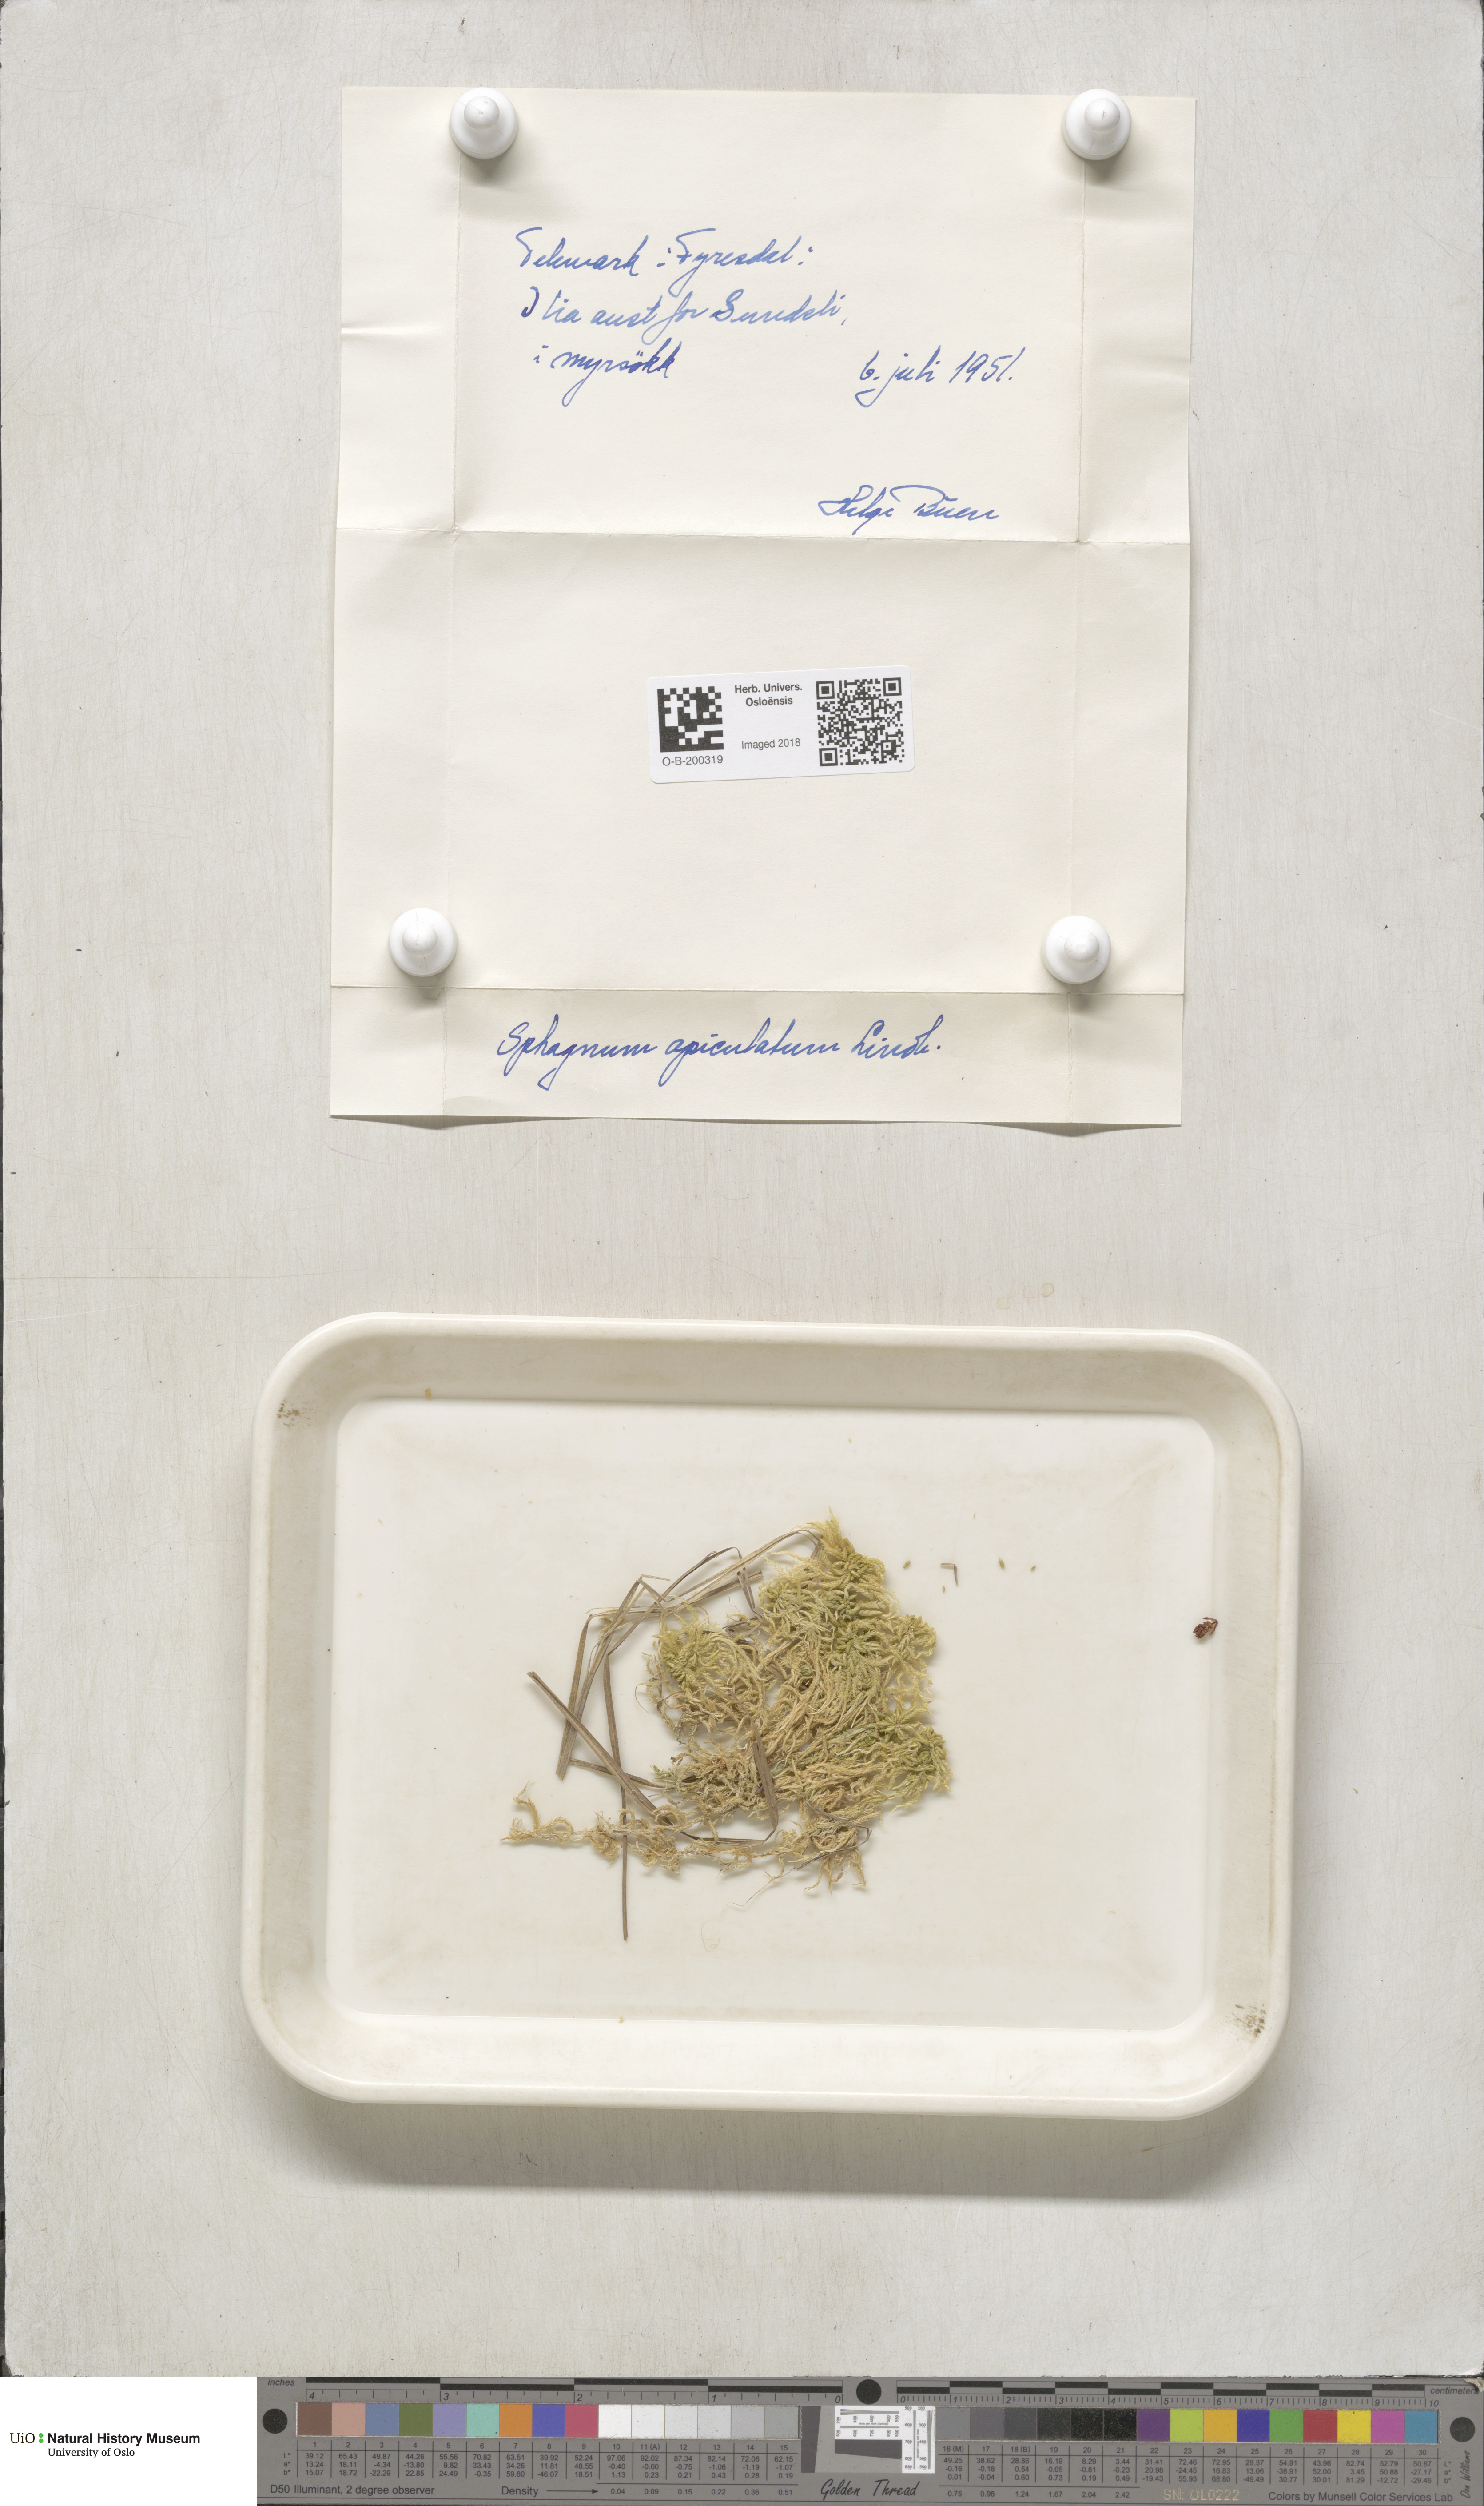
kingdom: Plantae
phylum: Bryophyta
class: Sphagnopsida
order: Sphagnales
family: Sphagnaceae
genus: Sphagnum
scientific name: Sphagnum fallax
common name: Flat-top peat moss
